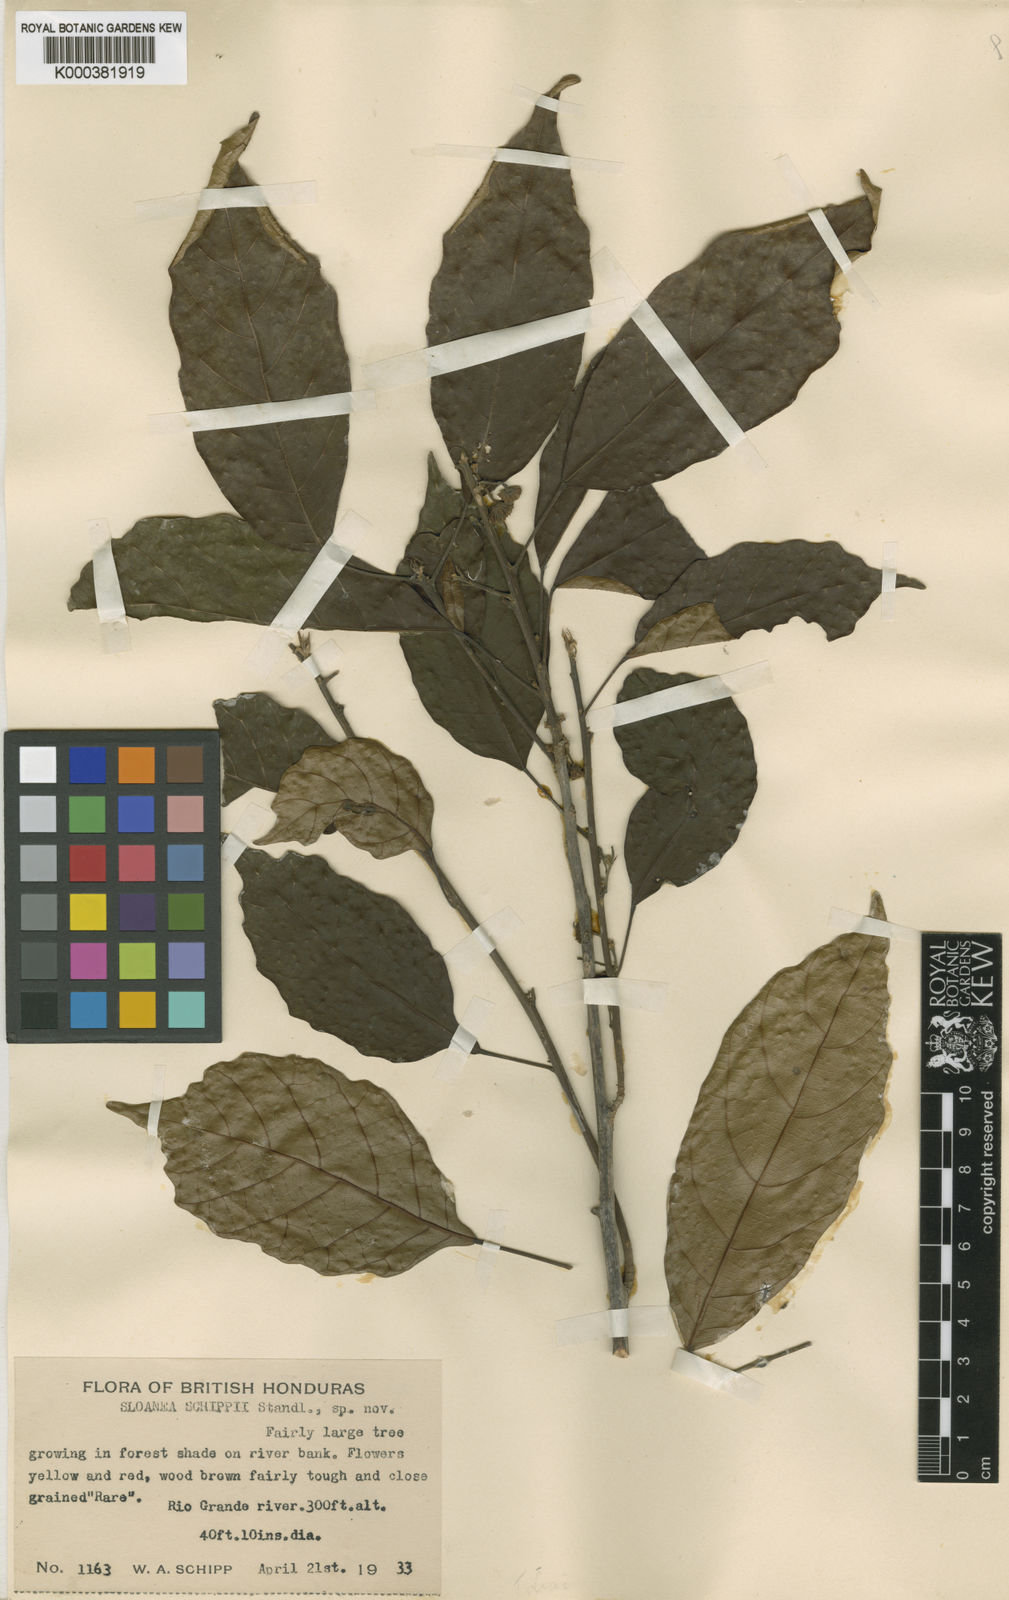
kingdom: Plantae
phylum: Tracheophyta
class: Magnoliopsida
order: Oxalidales
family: Elaeocarpaceae
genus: Sloanea
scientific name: Sloanea guapilensis
